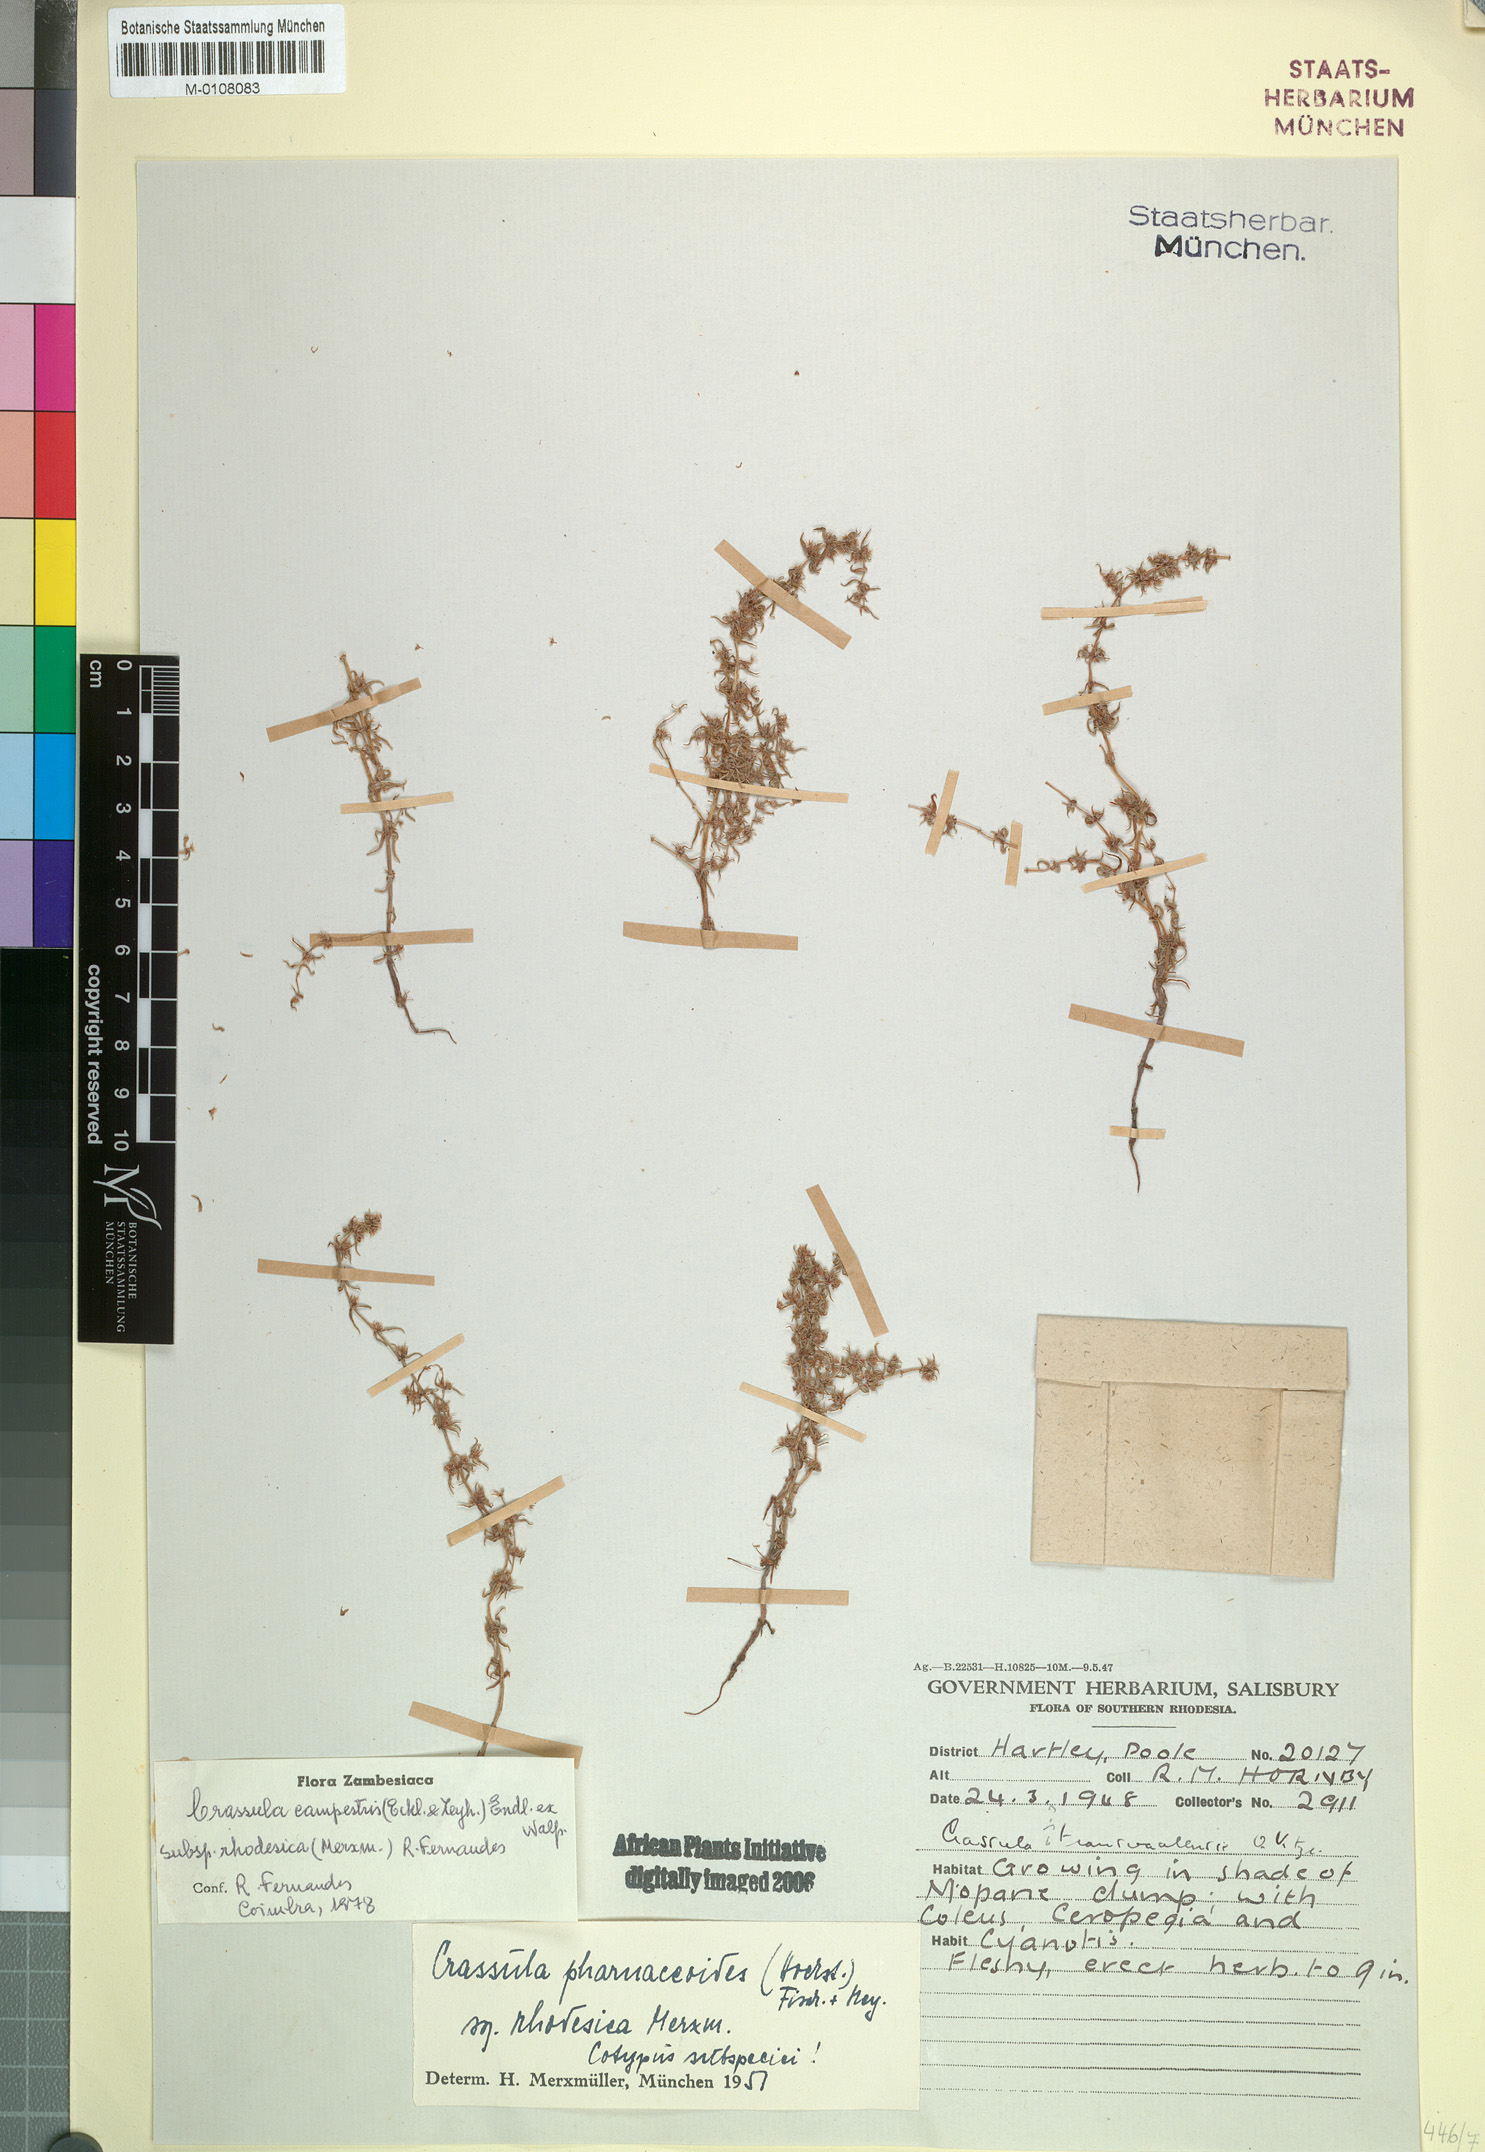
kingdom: Plantae
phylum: Tracheophyta
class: Magnoliopsida
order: Saxifragales
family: Crassulaceae
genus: Crassula
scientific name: Crassula rhodesica
